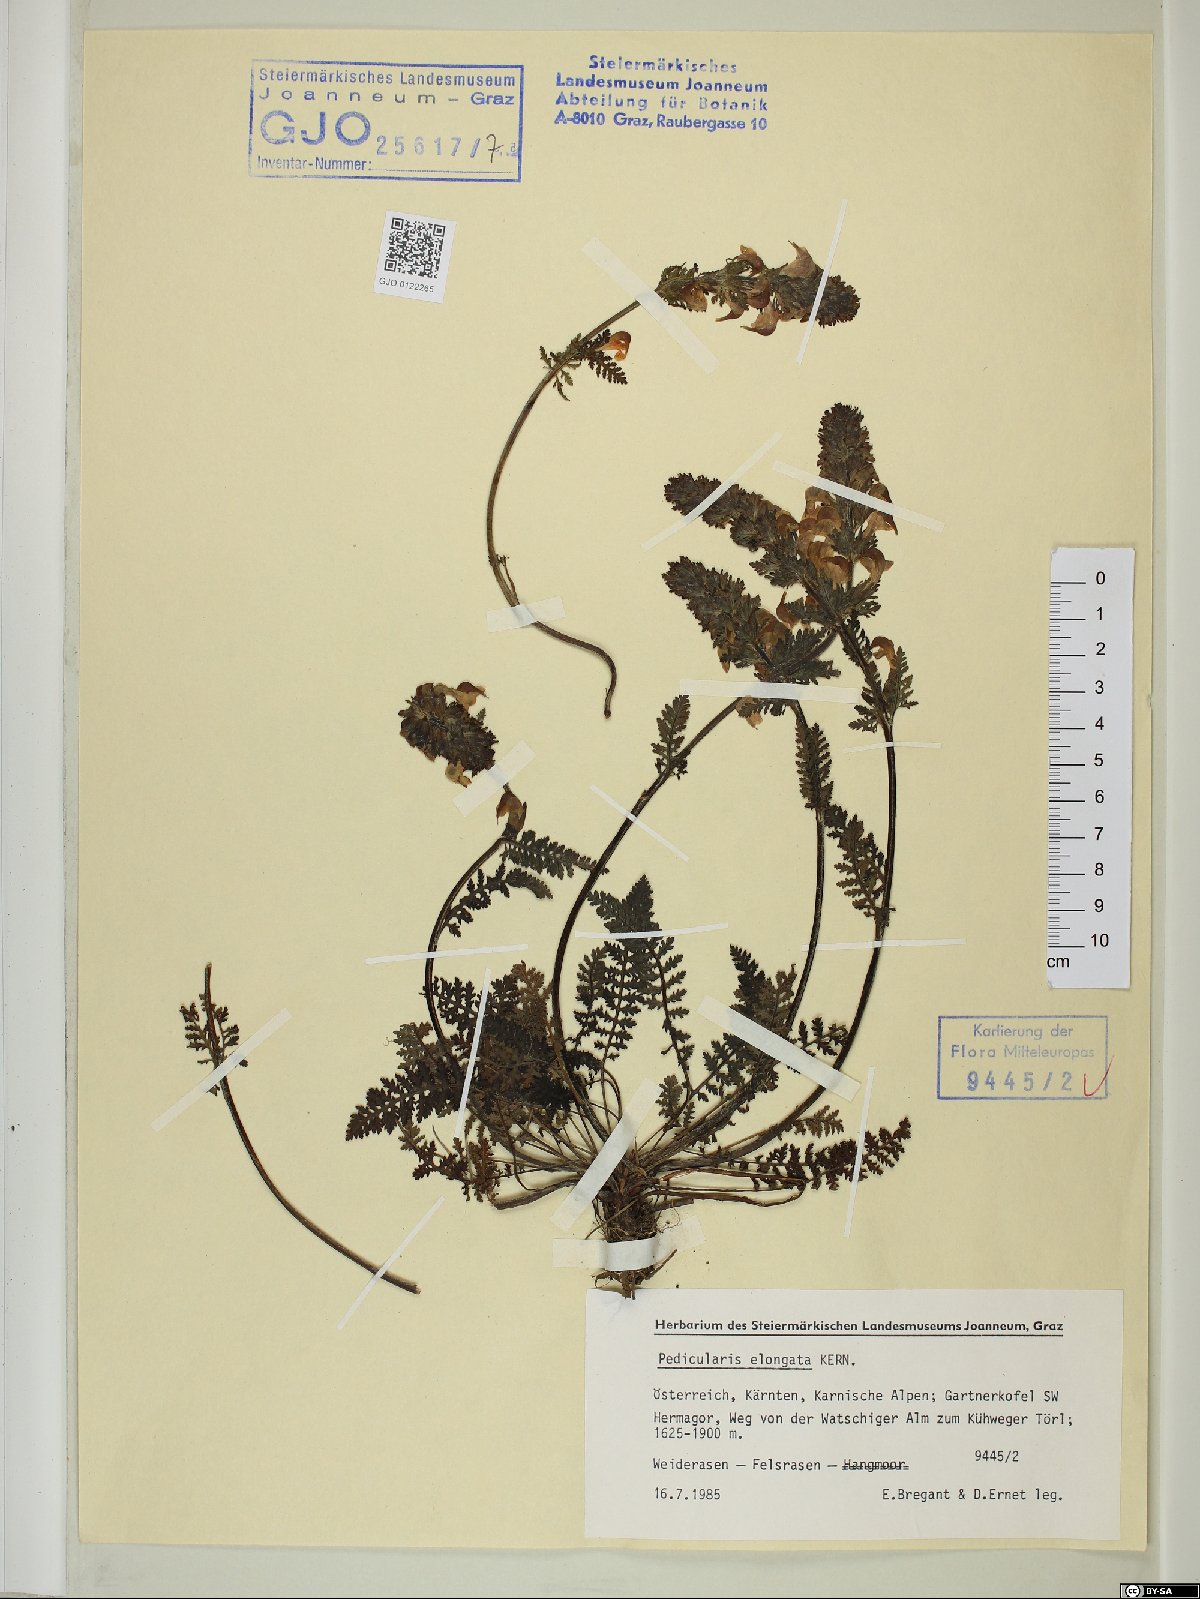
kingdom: Plantae
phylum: Tracheophyta
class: Magnoliopsida
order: Lamiales
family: Orobanchaceae
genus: Pedicularis
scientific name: Pedicularis elongata
